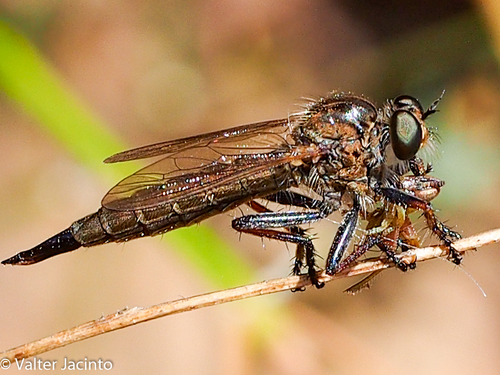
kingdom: Animalia
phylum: Arthropoda
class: Insecta
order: Diptera
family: Asilidae
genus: Machimus
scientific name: Machimus dasypygus
